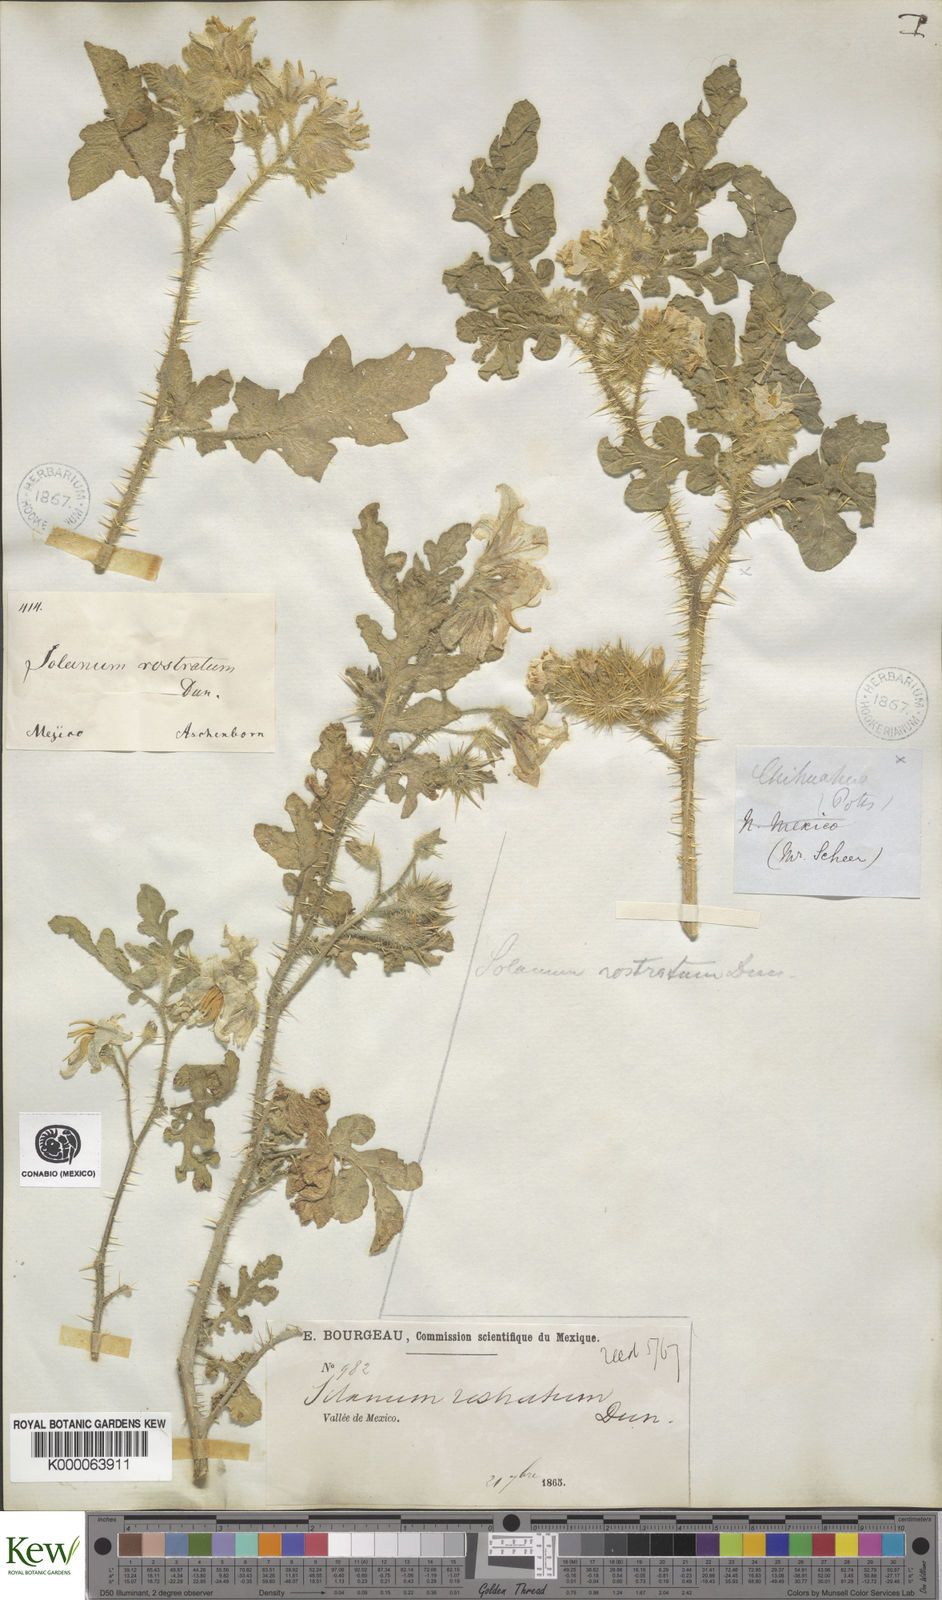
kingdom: Plantae
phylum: Tracheophyta
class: Magnoliopsida
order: Solanales
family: Solanaceae
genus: Solanum
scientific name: Solanum angustifolium
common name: Buffalobur nightshade
